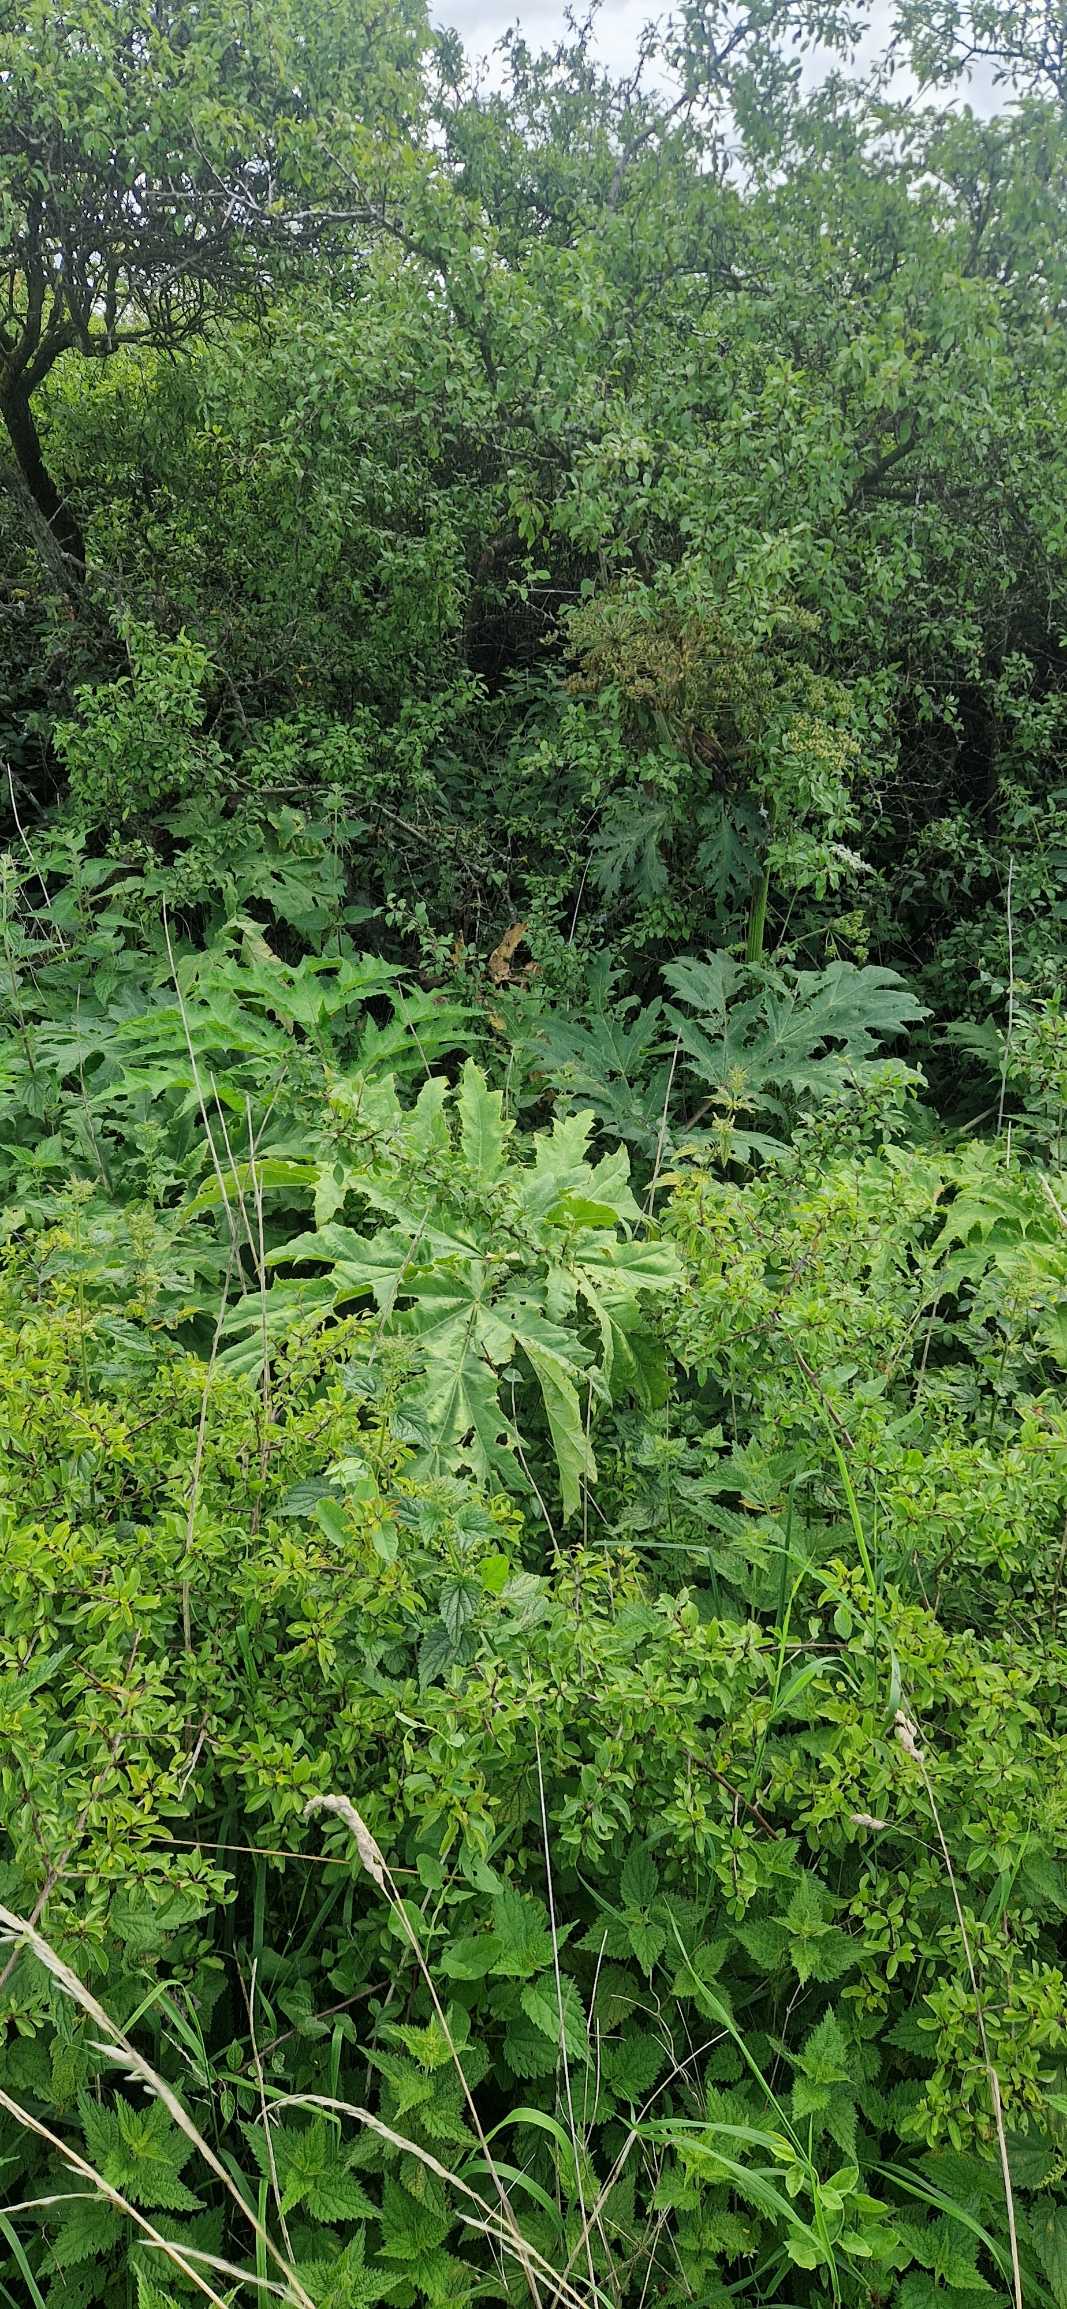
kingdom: Plantae
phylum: Tracheophyta
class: Magnoliopsida
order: Apiales
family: Apiaceae
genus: Heracleum
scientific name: Heracleum mantegazzianum
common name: Kæmpe-bjørneklo
